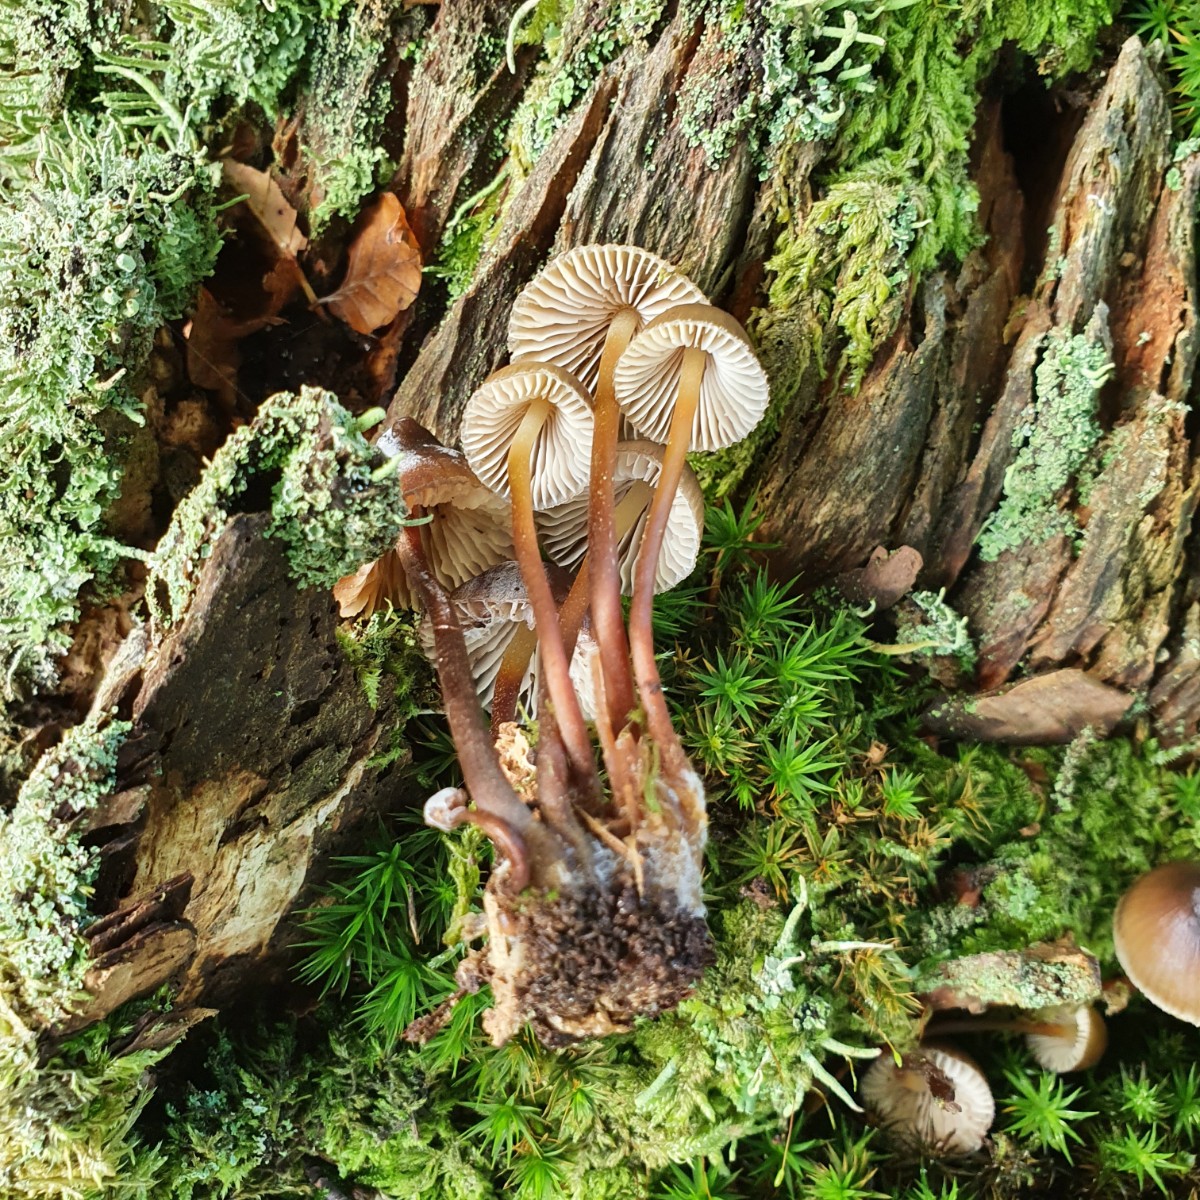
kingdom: Fungi
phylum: Basidiomycota
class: Agaricomycetes
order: Agaricales
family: Mycenaceae
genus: Mycena
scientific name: Mycena inclinata
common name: nikkende huesvamp
